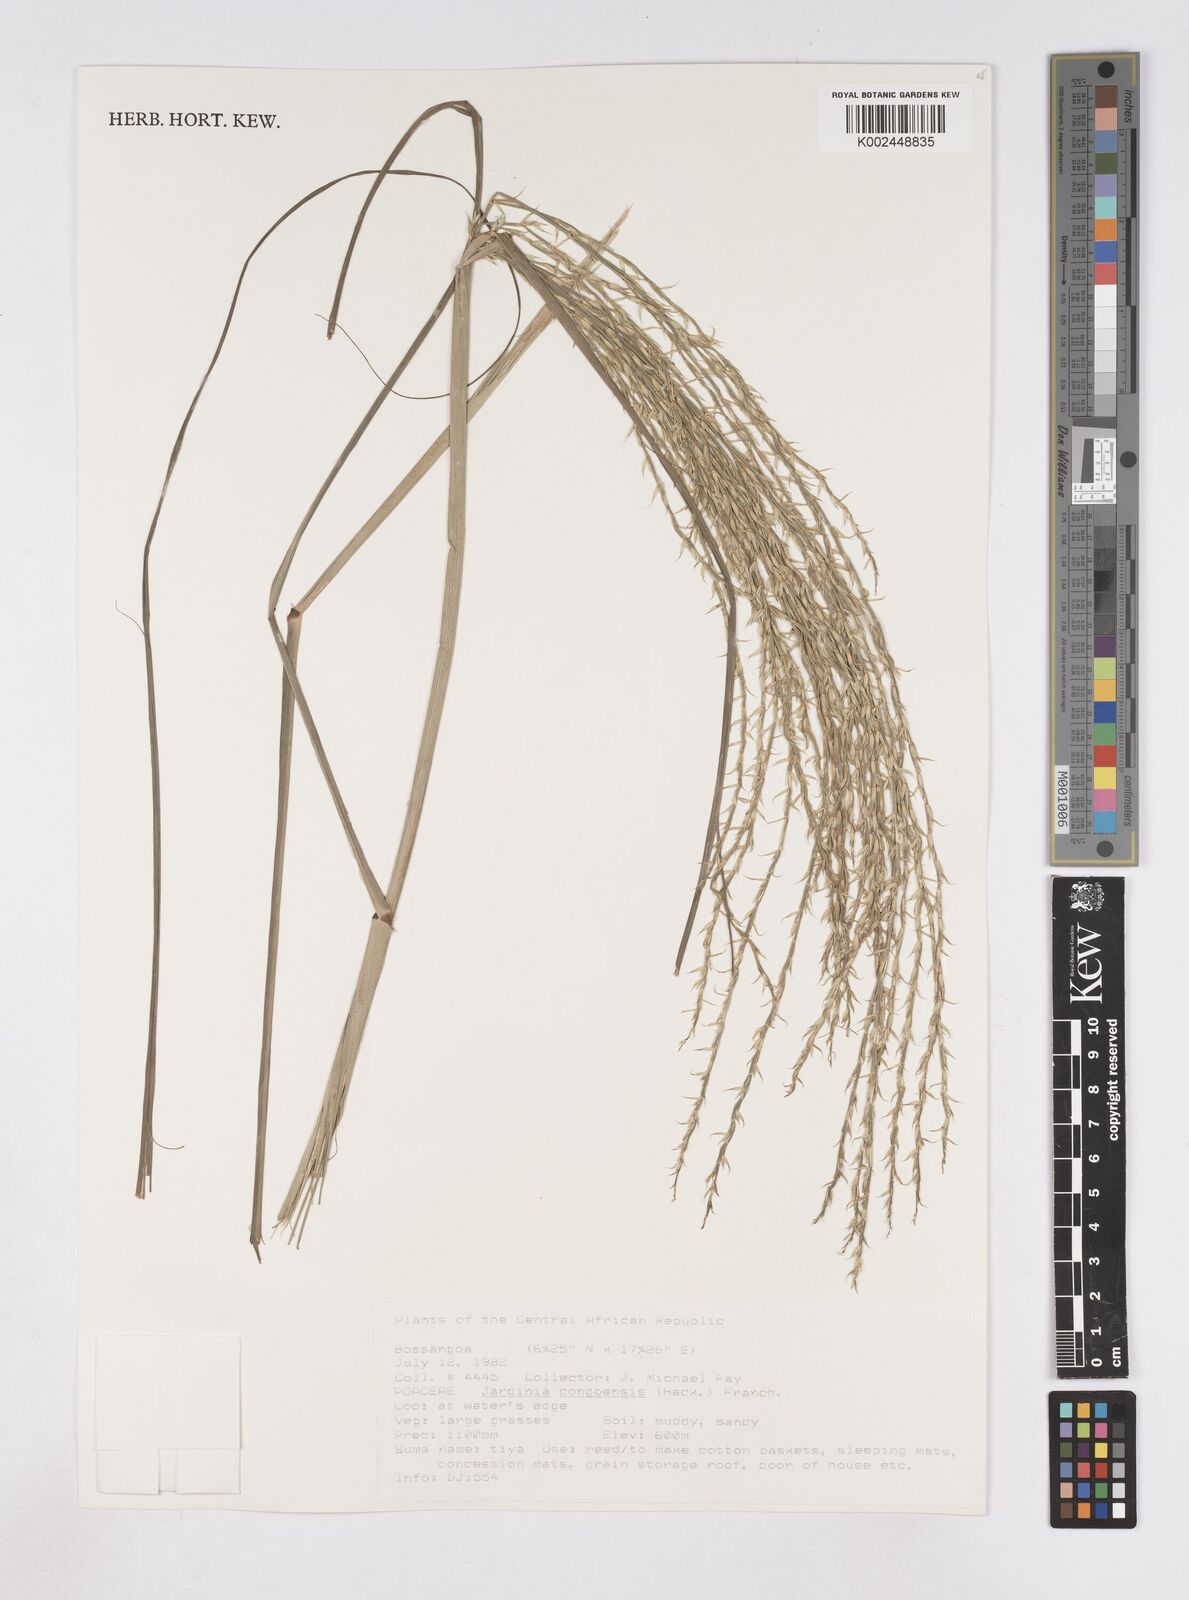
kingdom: Plantae
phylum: Tracheophyta
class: Liliopsida
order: Poales
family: Poaceae
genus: Phacelurus
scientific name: Phacelurus gabonensis
